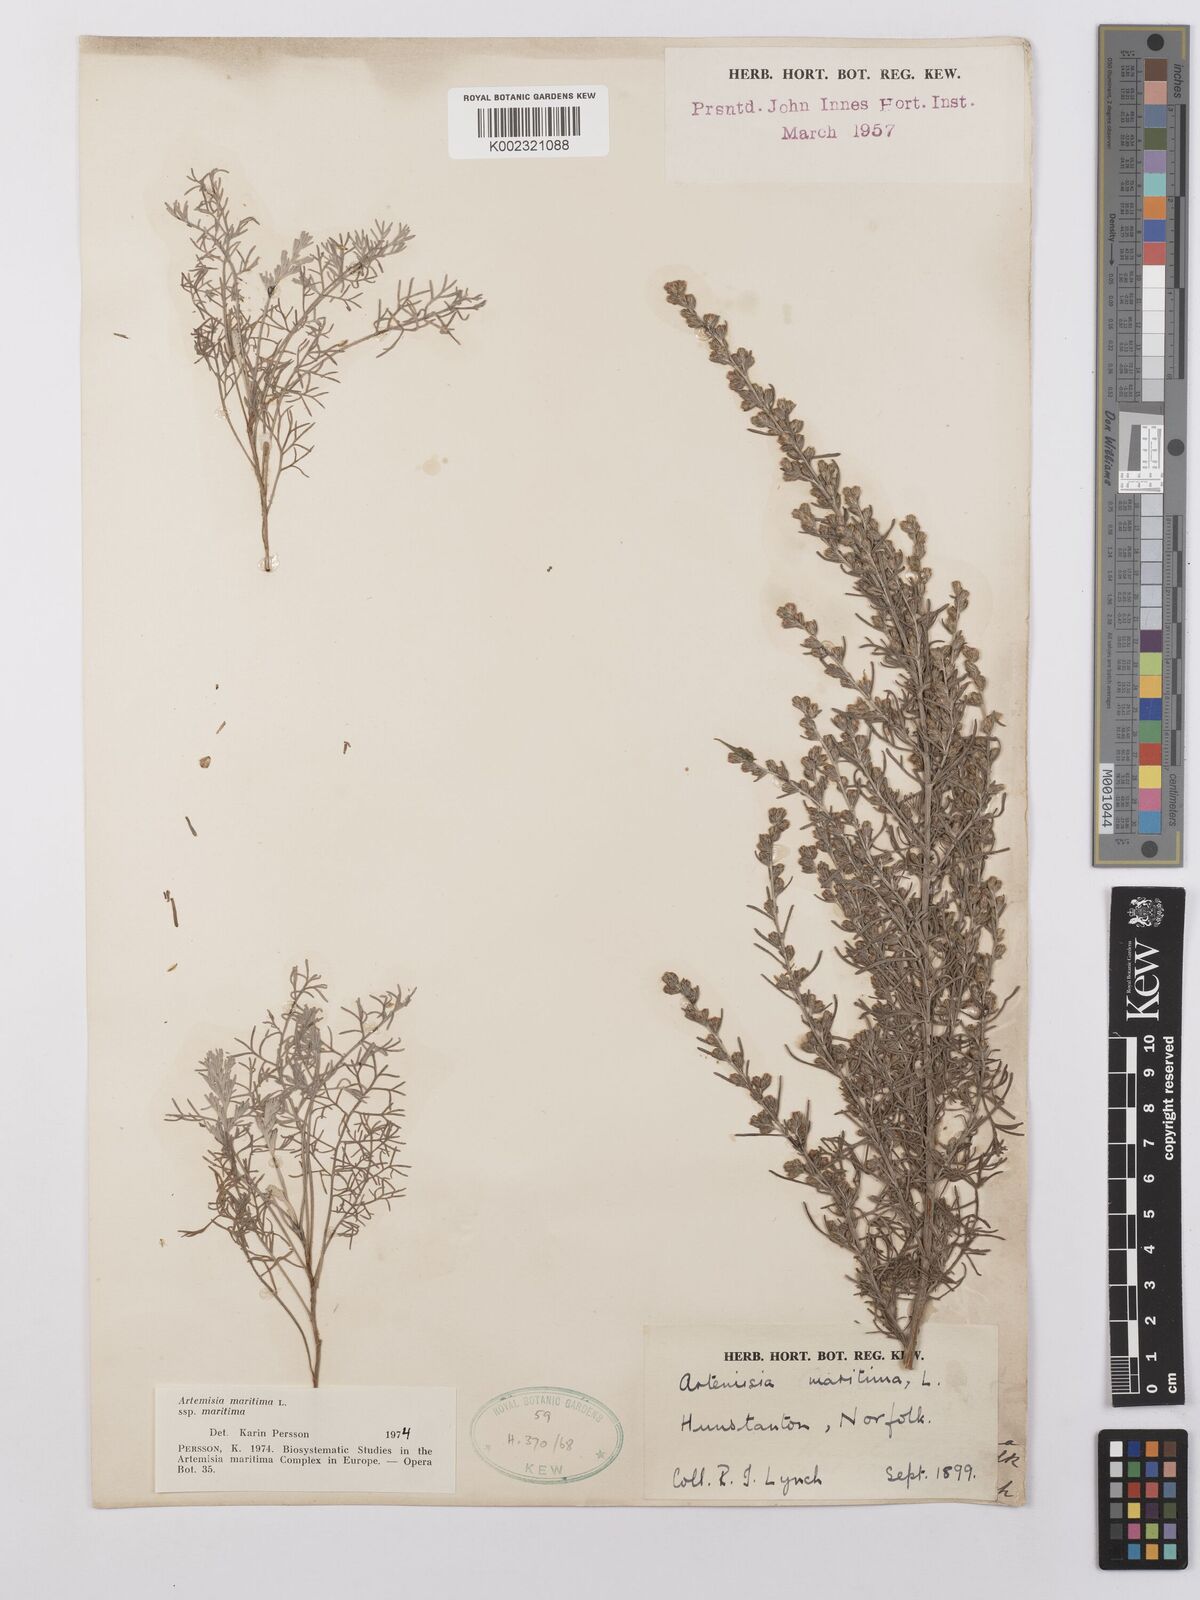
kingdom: Plantae
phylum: Tracheophyta
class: Magnoliopsida
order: Asterales
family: Asteraceae
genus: Artemisia
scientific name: Artemisia maritima
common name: Wormseed
